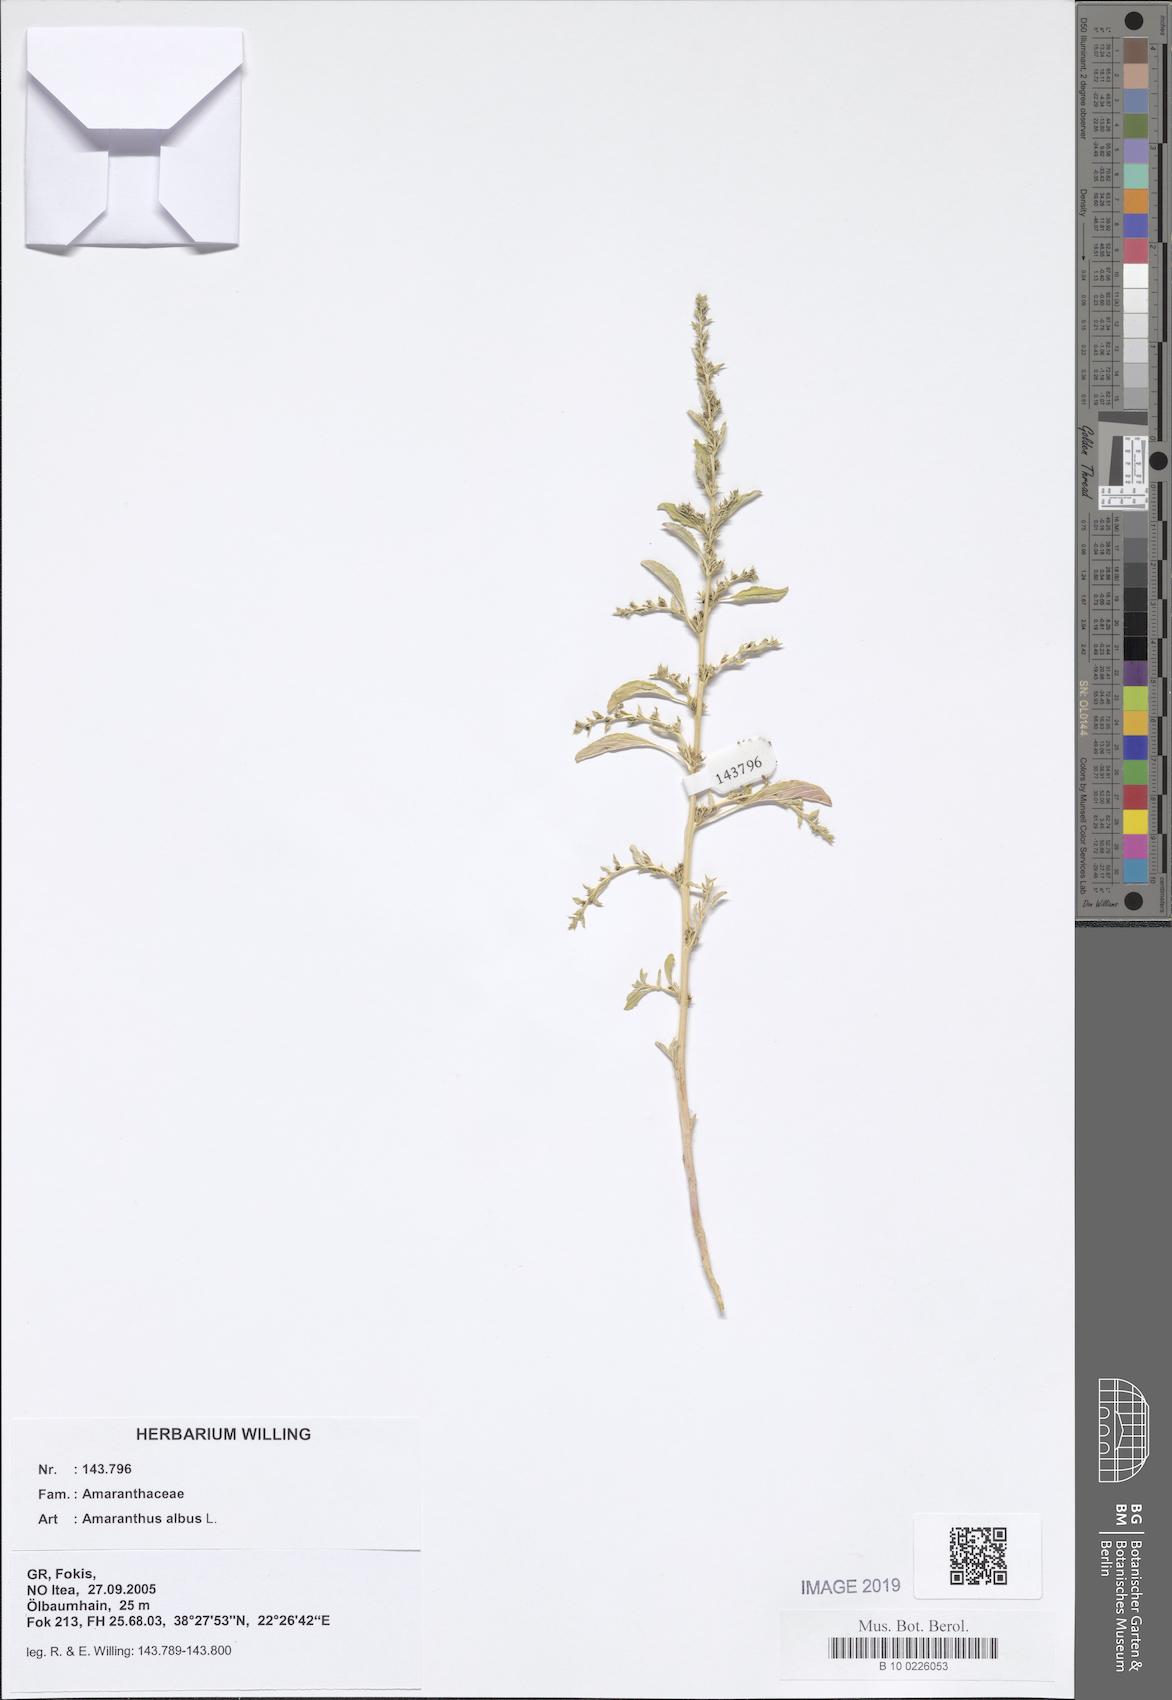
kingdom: Plantae
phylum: Tracheophyta
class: Magnoliopsida
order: Caryophyllales
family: Amaranthaceae
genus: Amaranthus
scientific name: Amaranthus albus
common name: White pigweed
